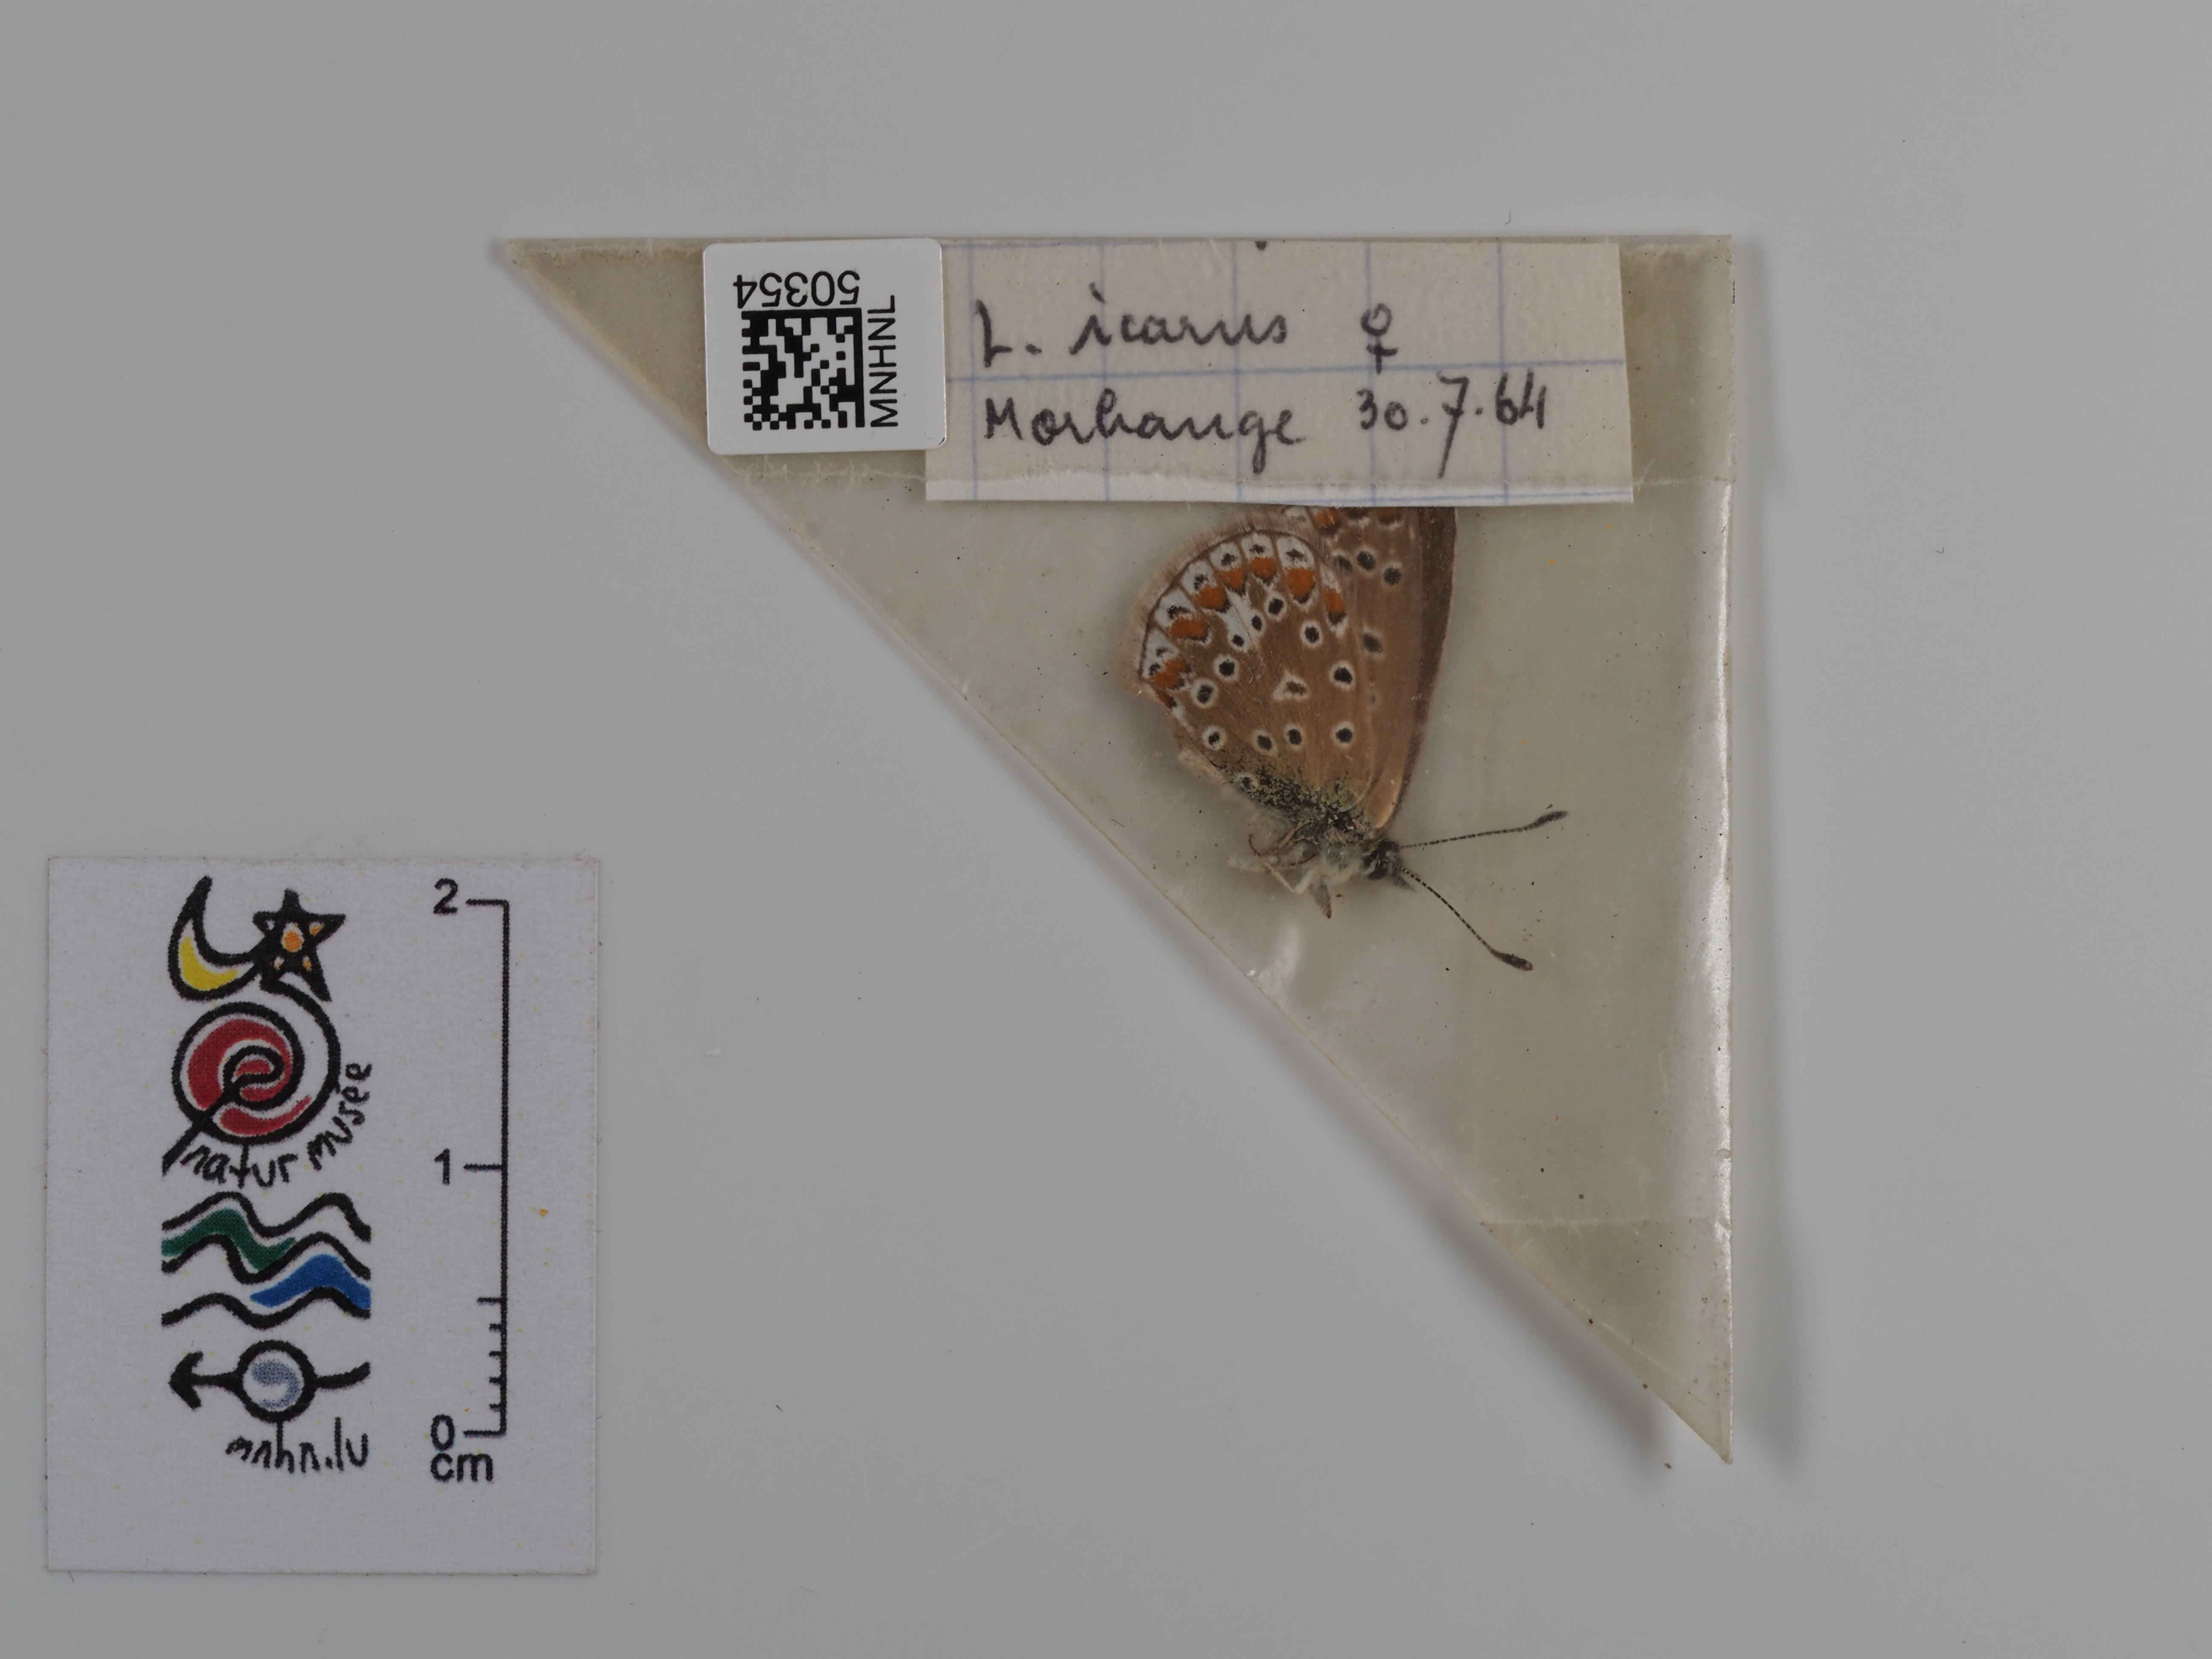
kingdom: Animalia
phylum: Arthropoda
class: Insecta
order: Lepidoptera
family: Lycaenidae
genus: Polyommatus
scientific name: Polyommatus icarus
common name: Common blue
